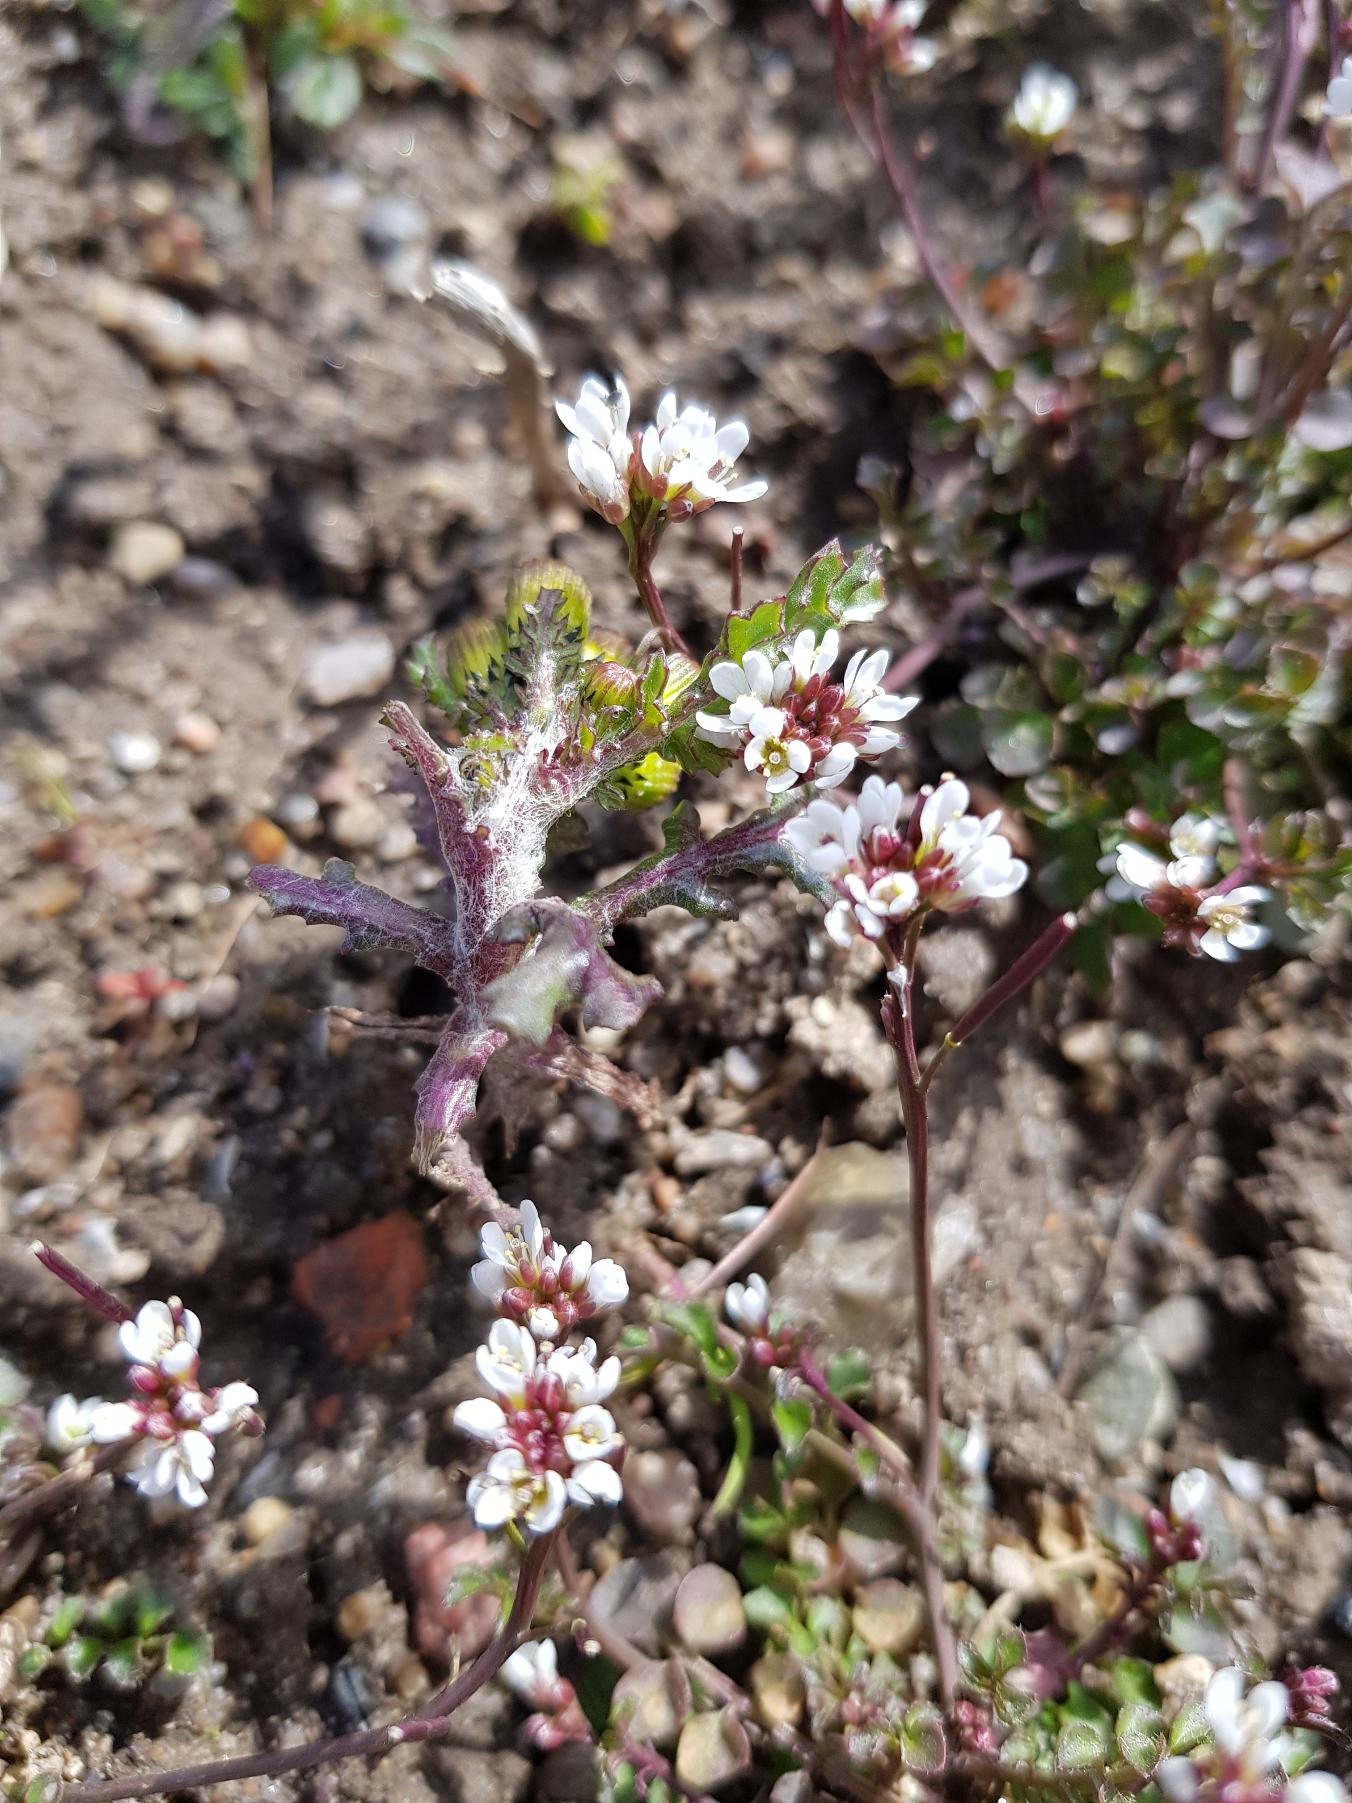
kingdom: Plantae
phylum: Tracheophyta
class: Magnoliopsida
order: Brassicales
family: Brassicaceae
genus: Cardamine
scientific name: Cardamine hirsuta
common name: Roset-springklap
